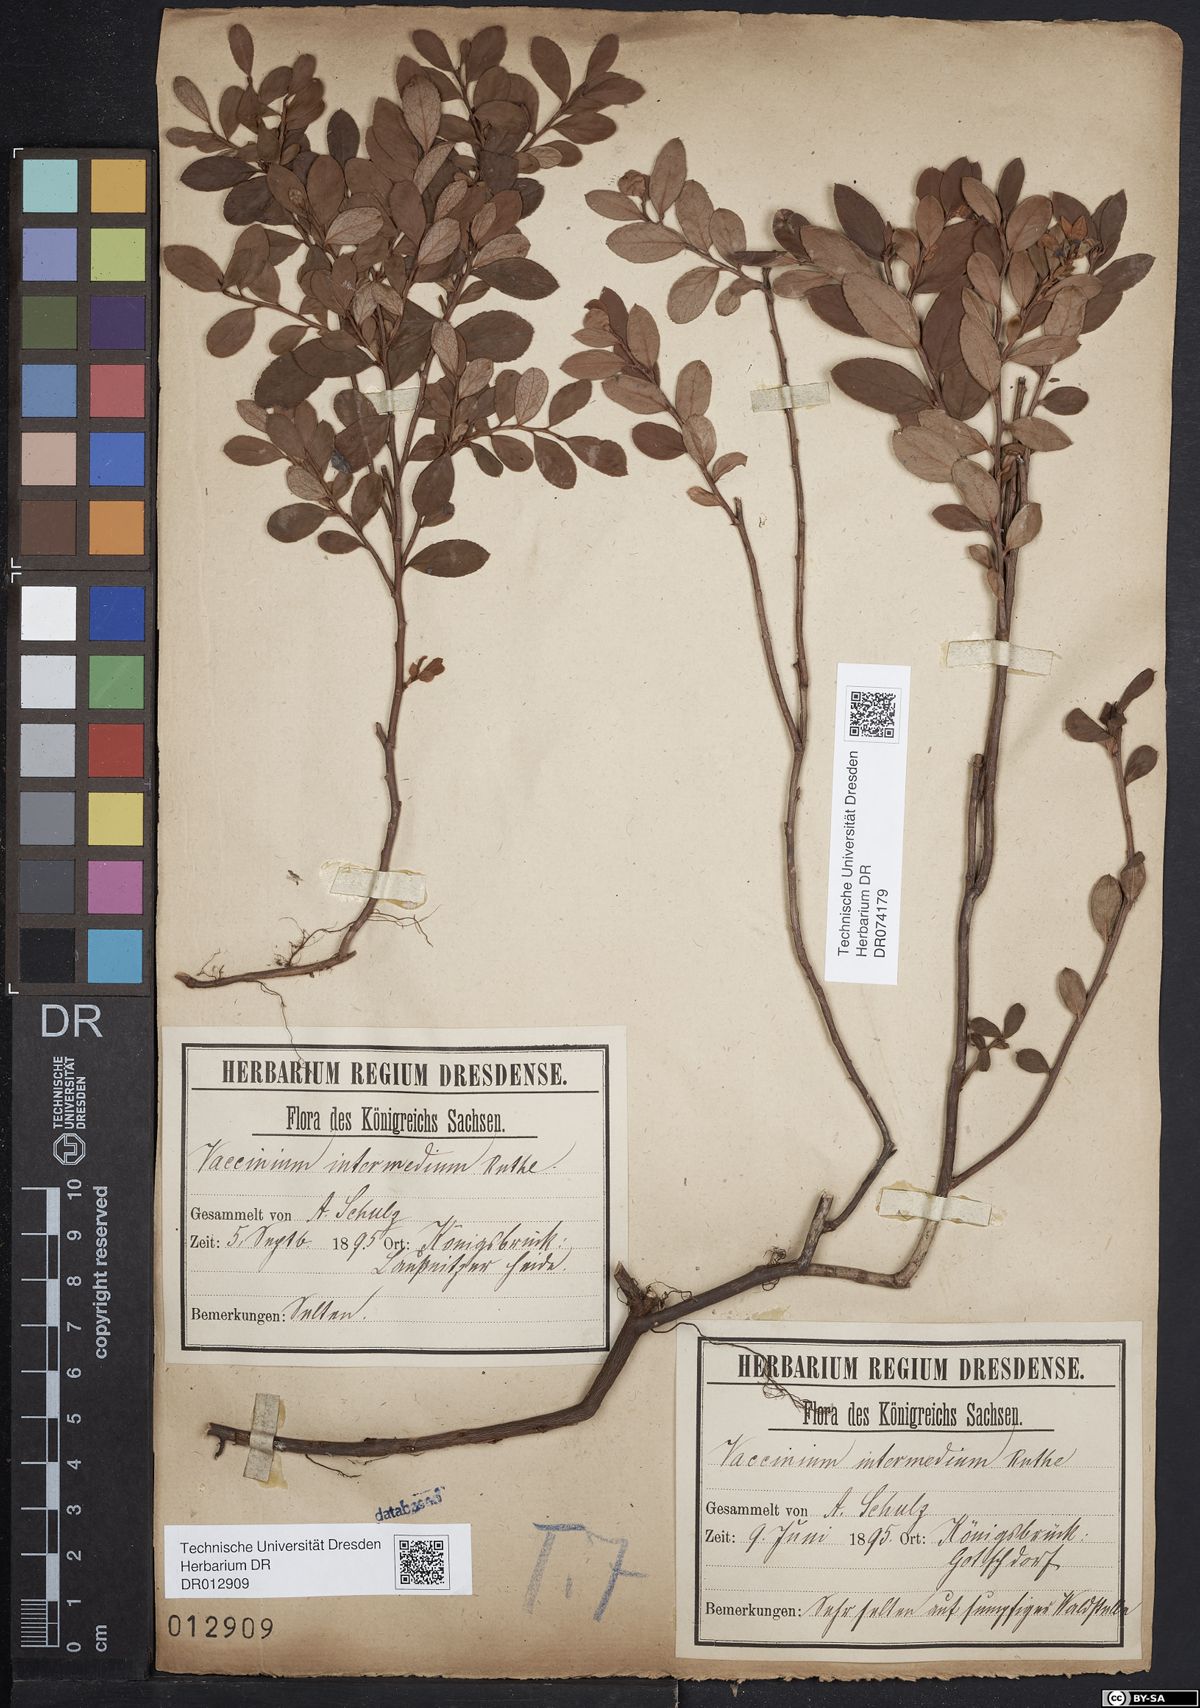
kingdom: Plantae
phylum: Tracheophyta
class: Magnoliopsida
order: Ericales
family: Ericaceae
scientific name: Ericaceae
